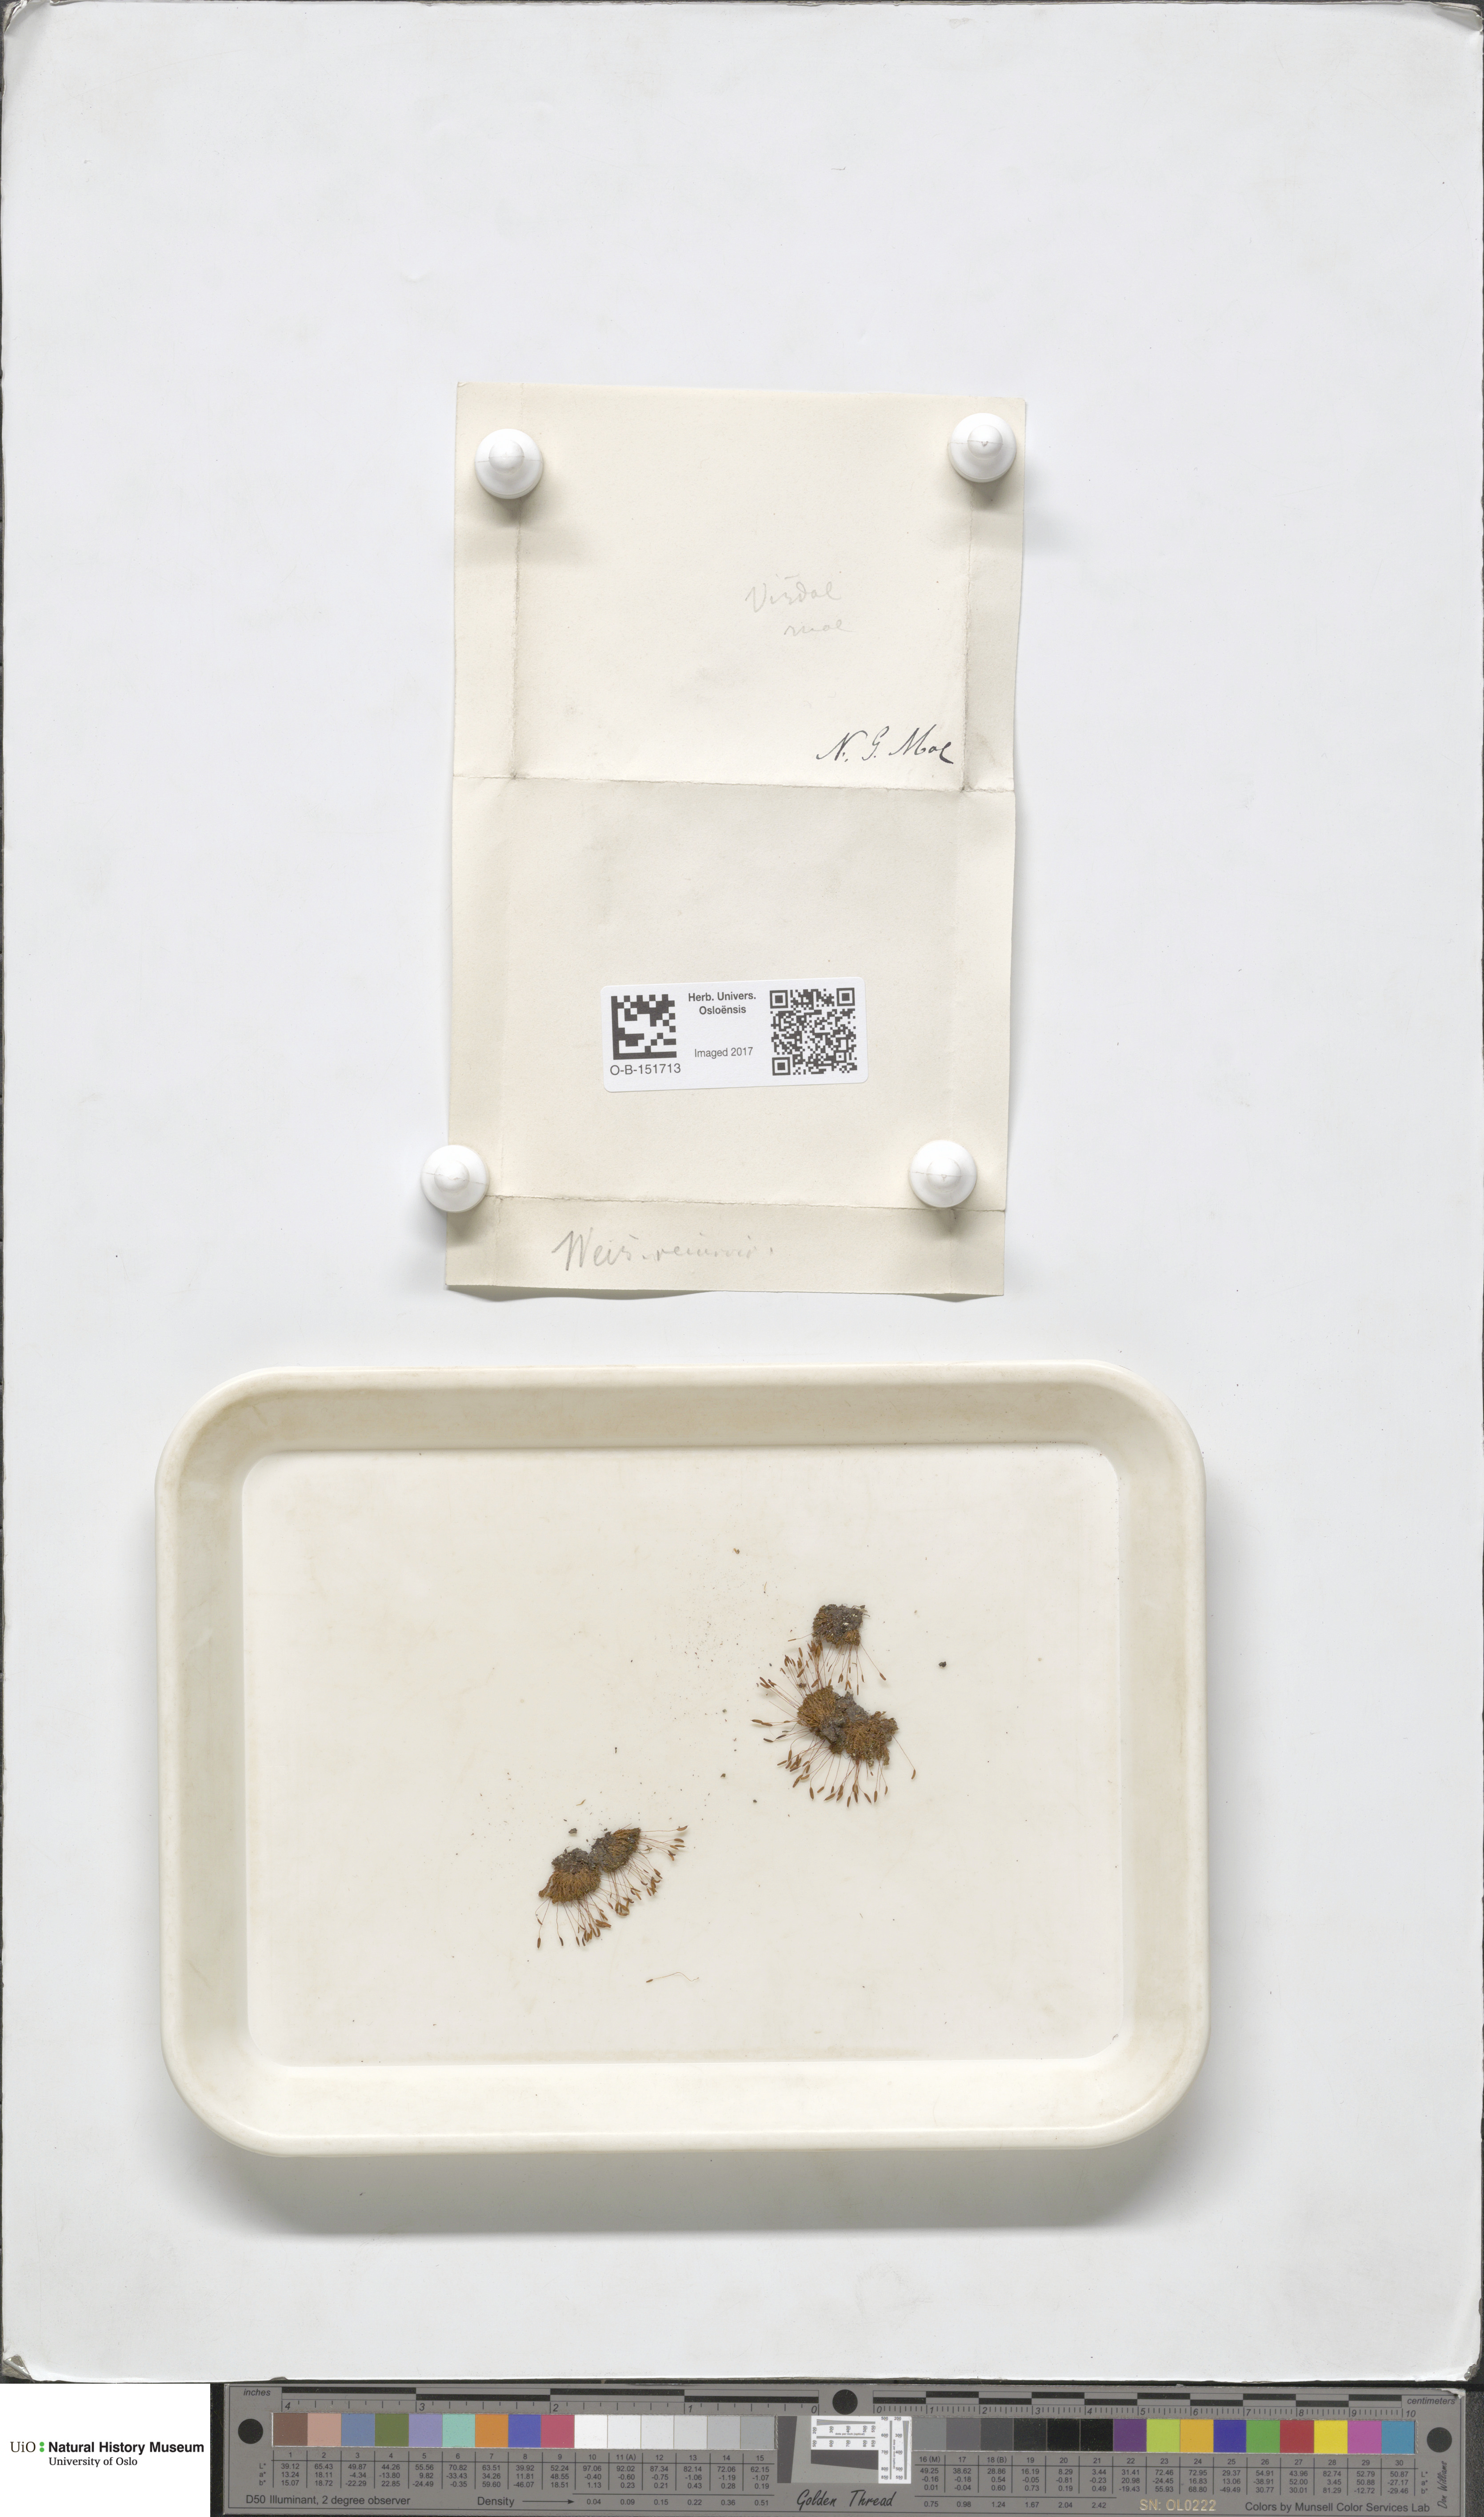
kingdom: Plantae
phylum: Bryophyta
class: Bryopsida
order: Pottiales
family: Pottiaceae
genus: Bryoerythrophyllum
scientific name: Bryoerythrophyllum recurvirostrum
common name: Red beard moss
